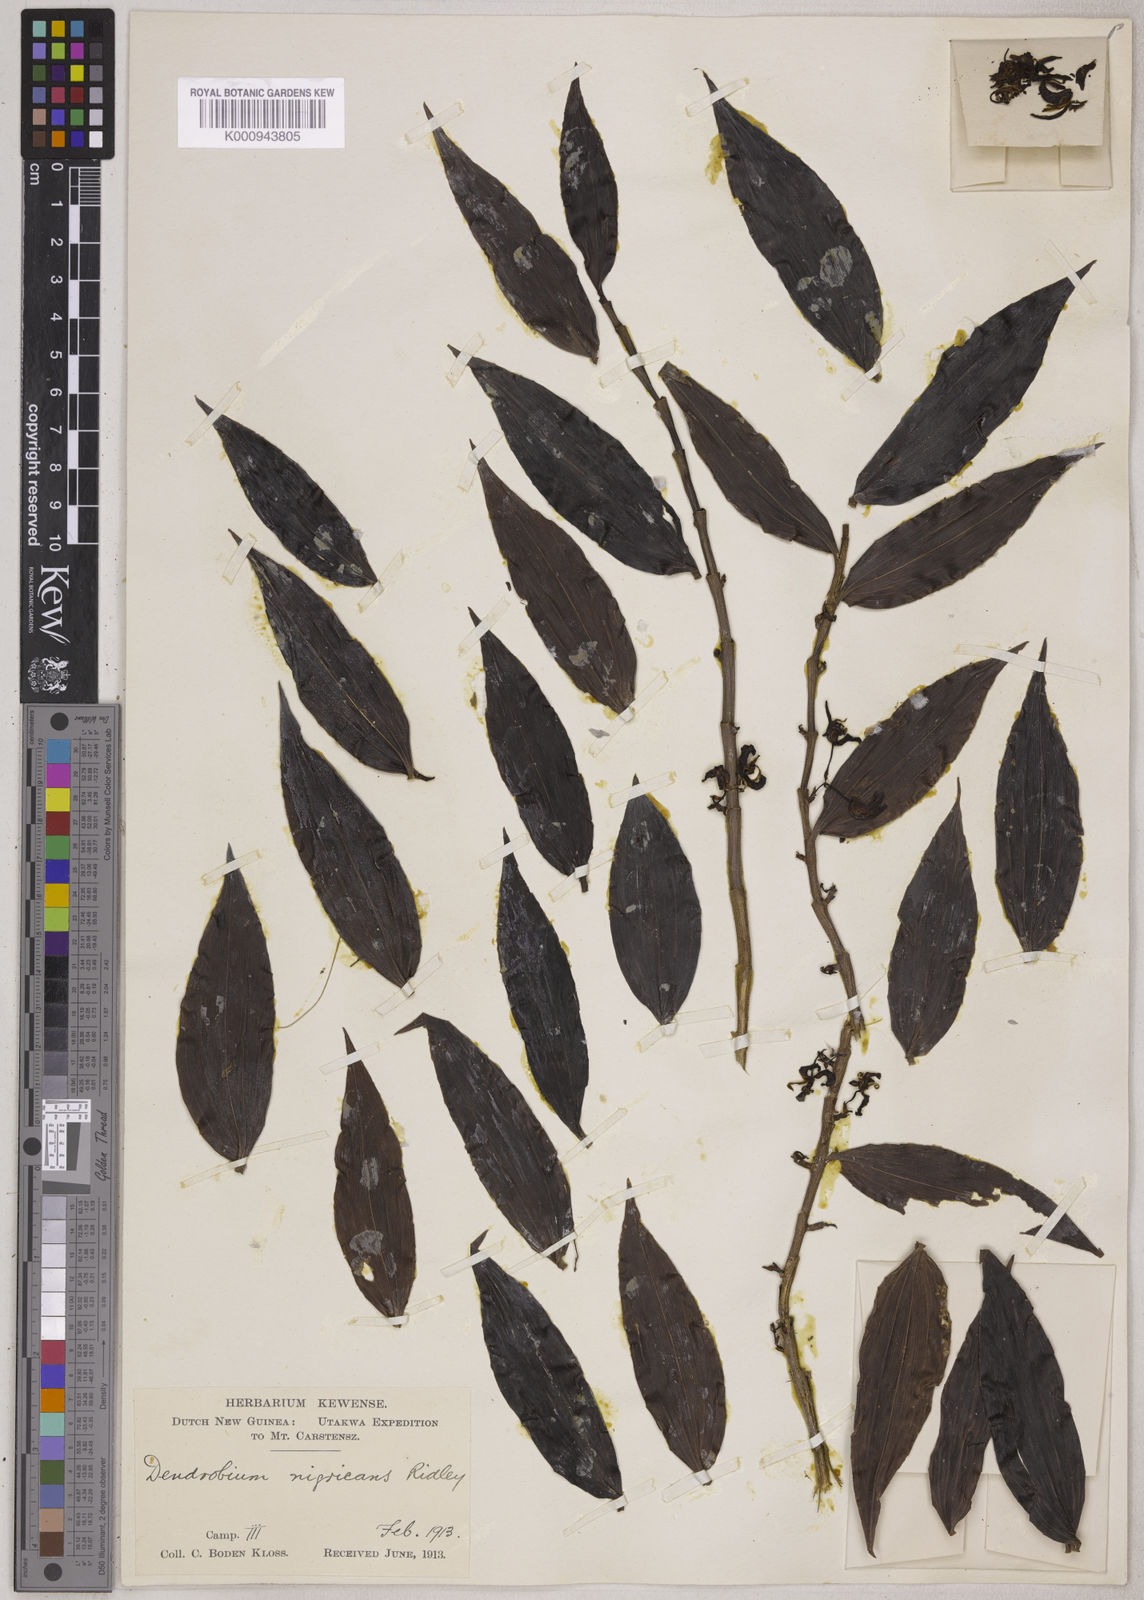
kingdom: Plantae
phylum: Tracheophyta
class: Liliopsida
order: Asparagales
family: Orchidaceae
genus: Pseuderia
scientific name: Pseuderia nigricans
